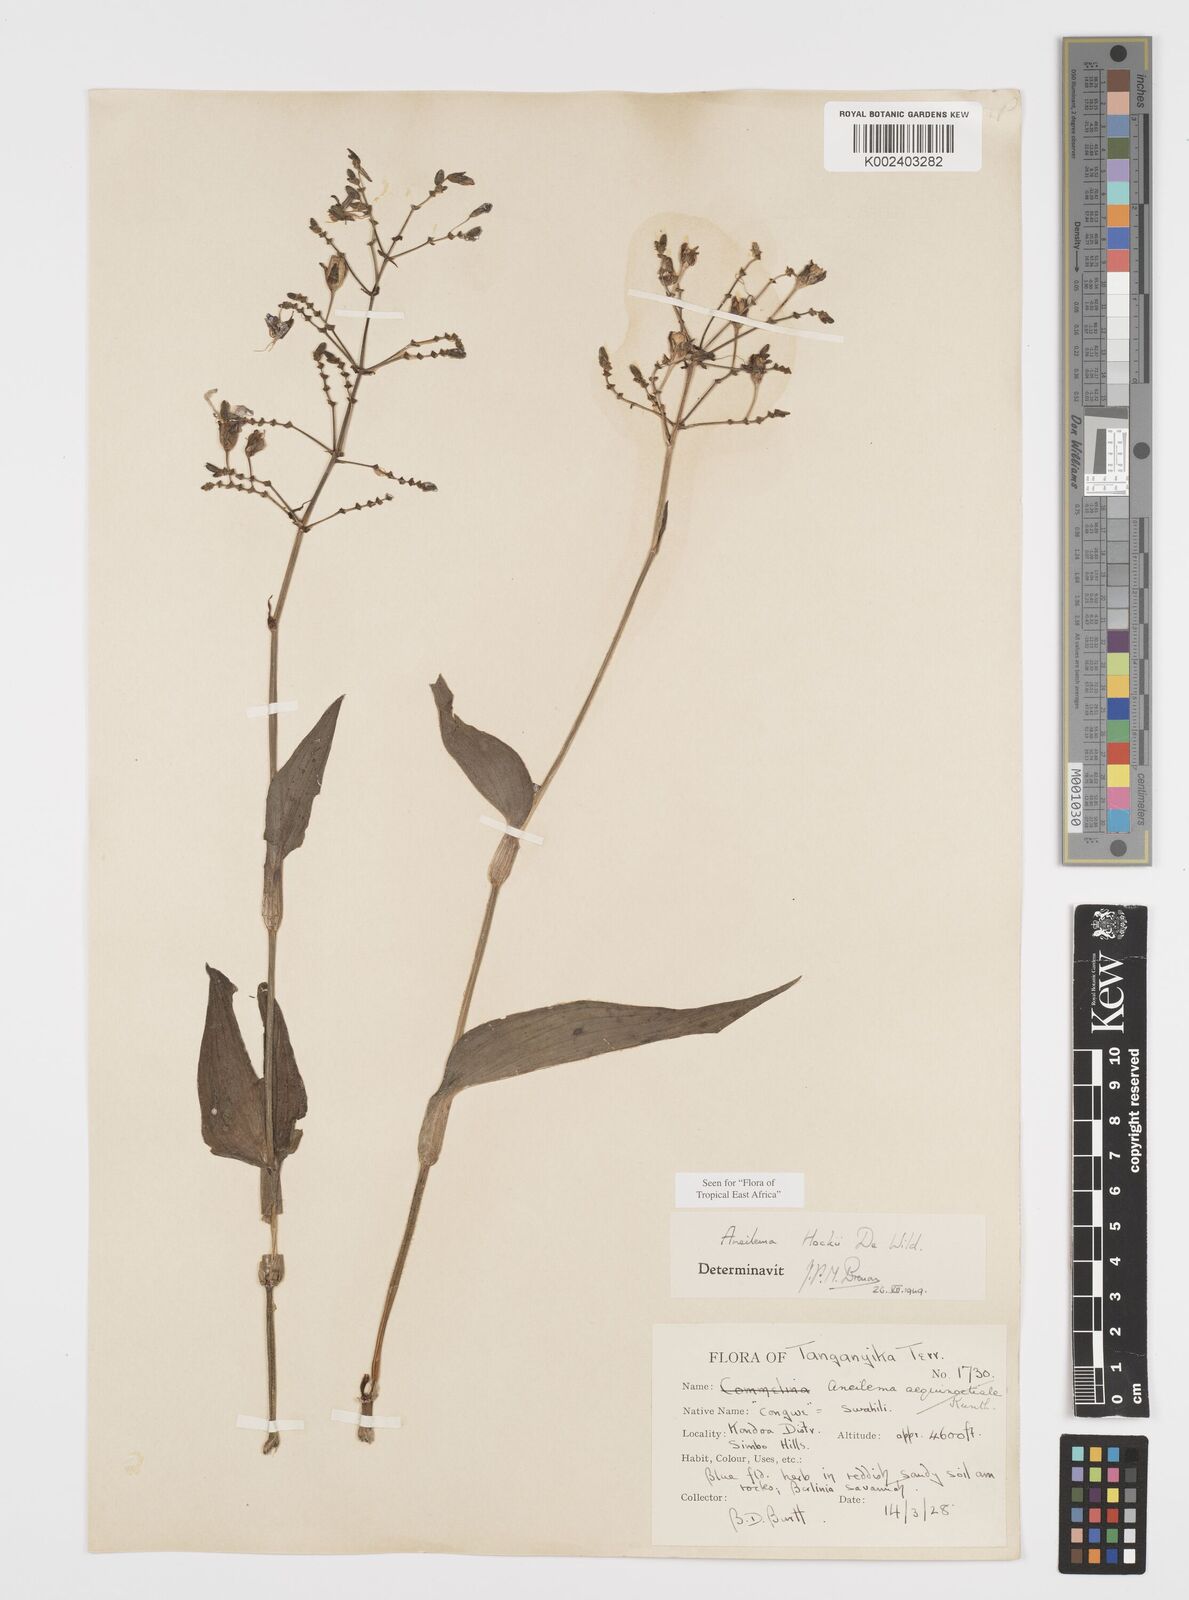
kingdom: Plantae
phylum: Tracheophyta
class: Liliopsida
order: Commelinales
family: Commelinaceae
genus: Aneilema
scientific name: Aneilema hockii
